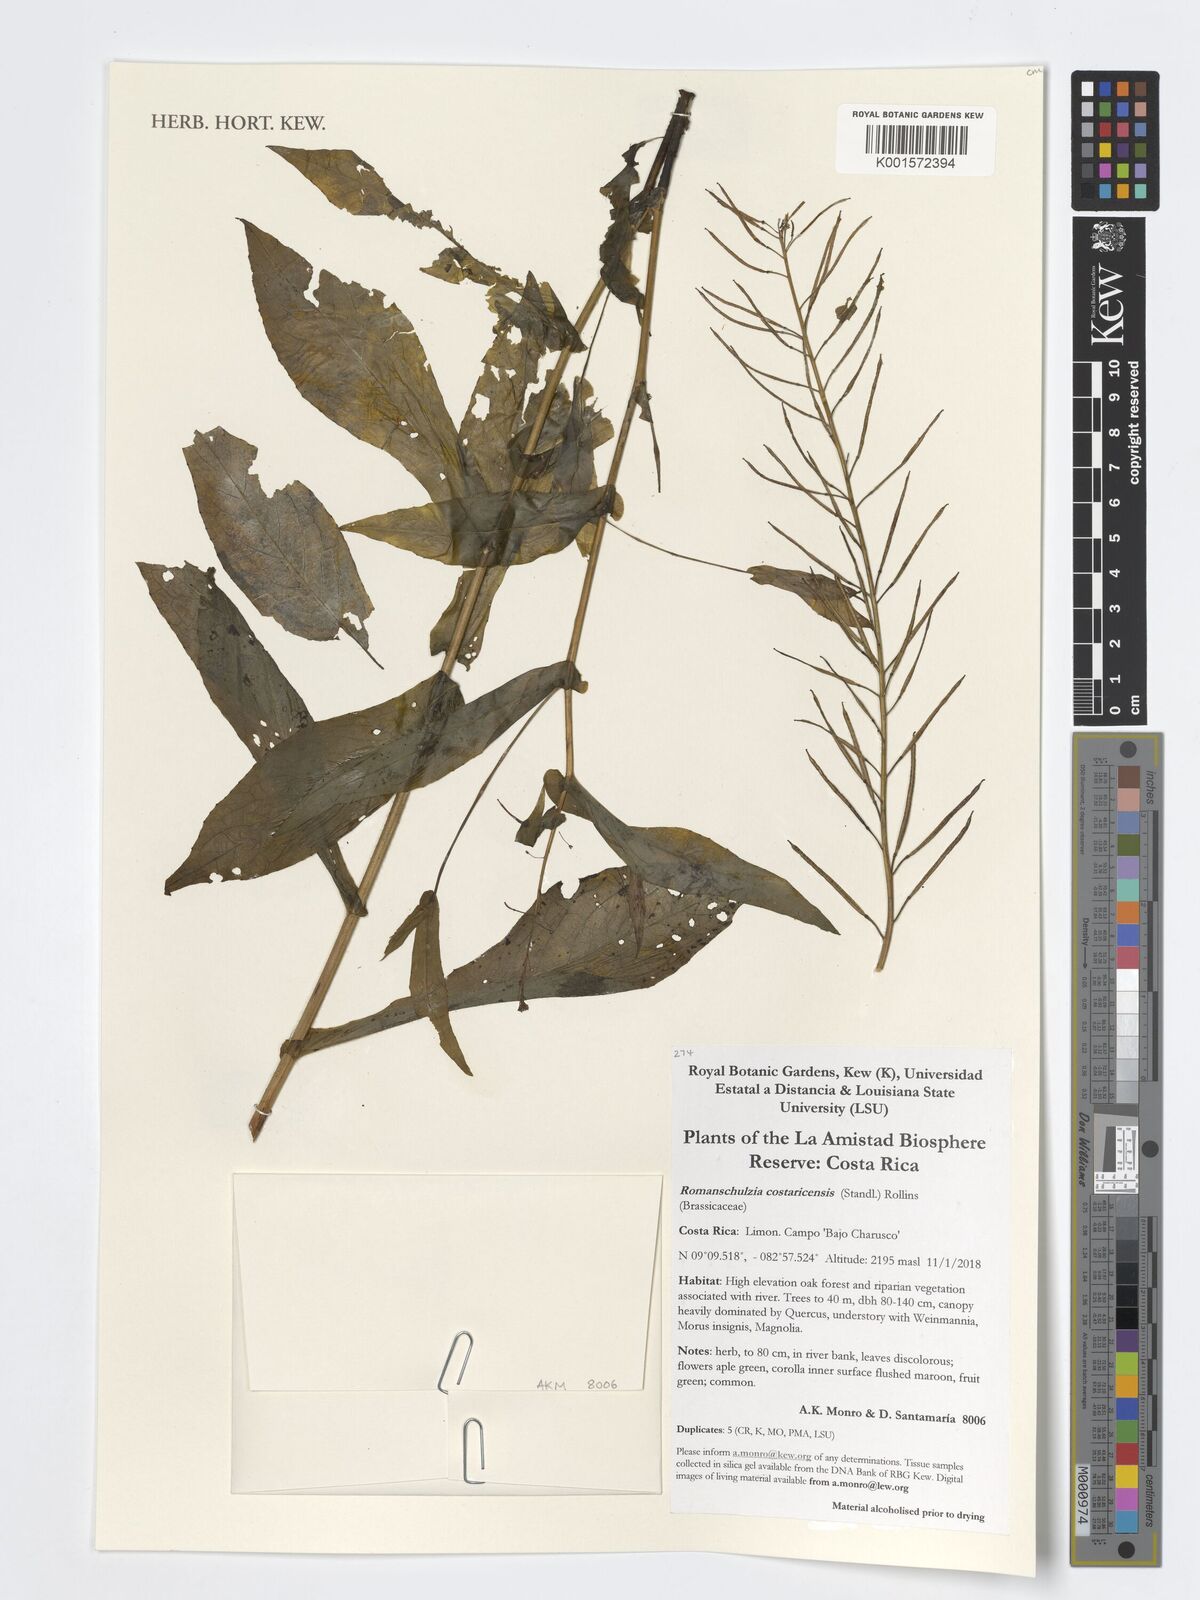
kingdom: Plantae
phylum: Tracheophyta
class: Magnoliopsida
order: Brassicales
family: Brassicaceae
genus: Romanschulzia
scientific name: Romanschulzia costaricensis
